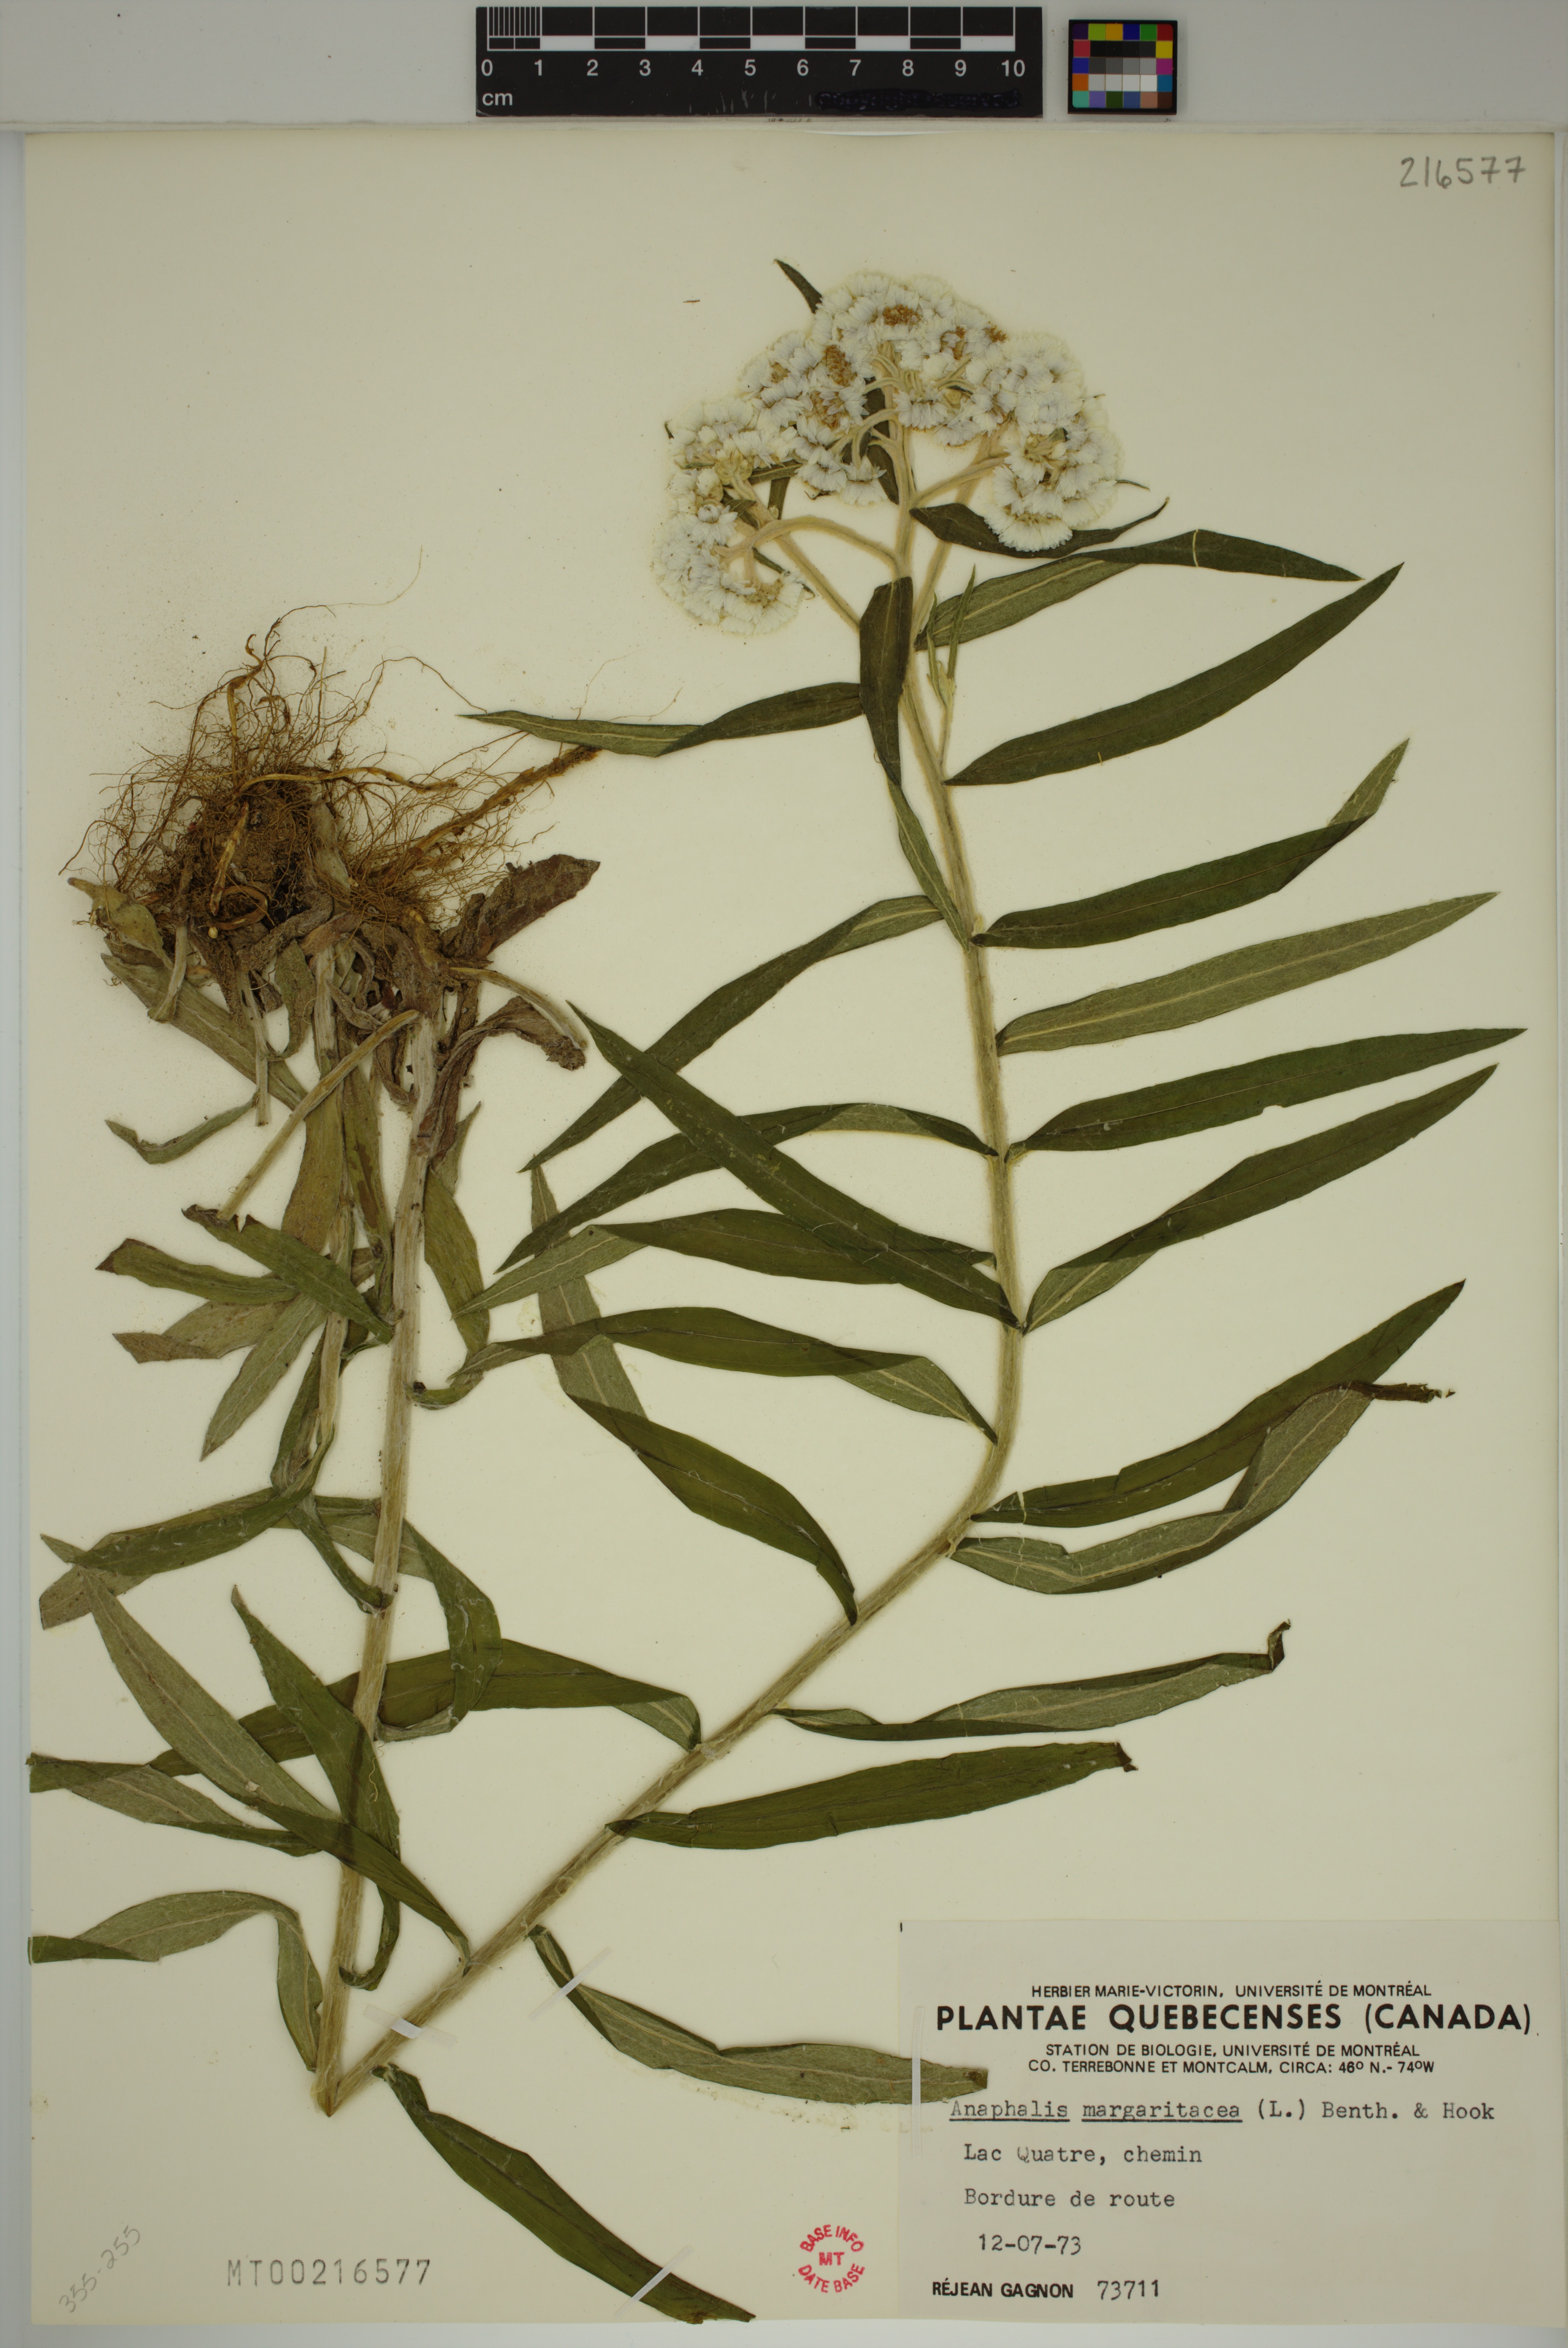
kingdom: Plantae
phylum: Tracheophyta
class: Magnoliopsida
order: Asterales
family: Asteraceae
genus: Anaphalis
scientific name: Anaphalis margaritacea
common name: Pearly everlasting
